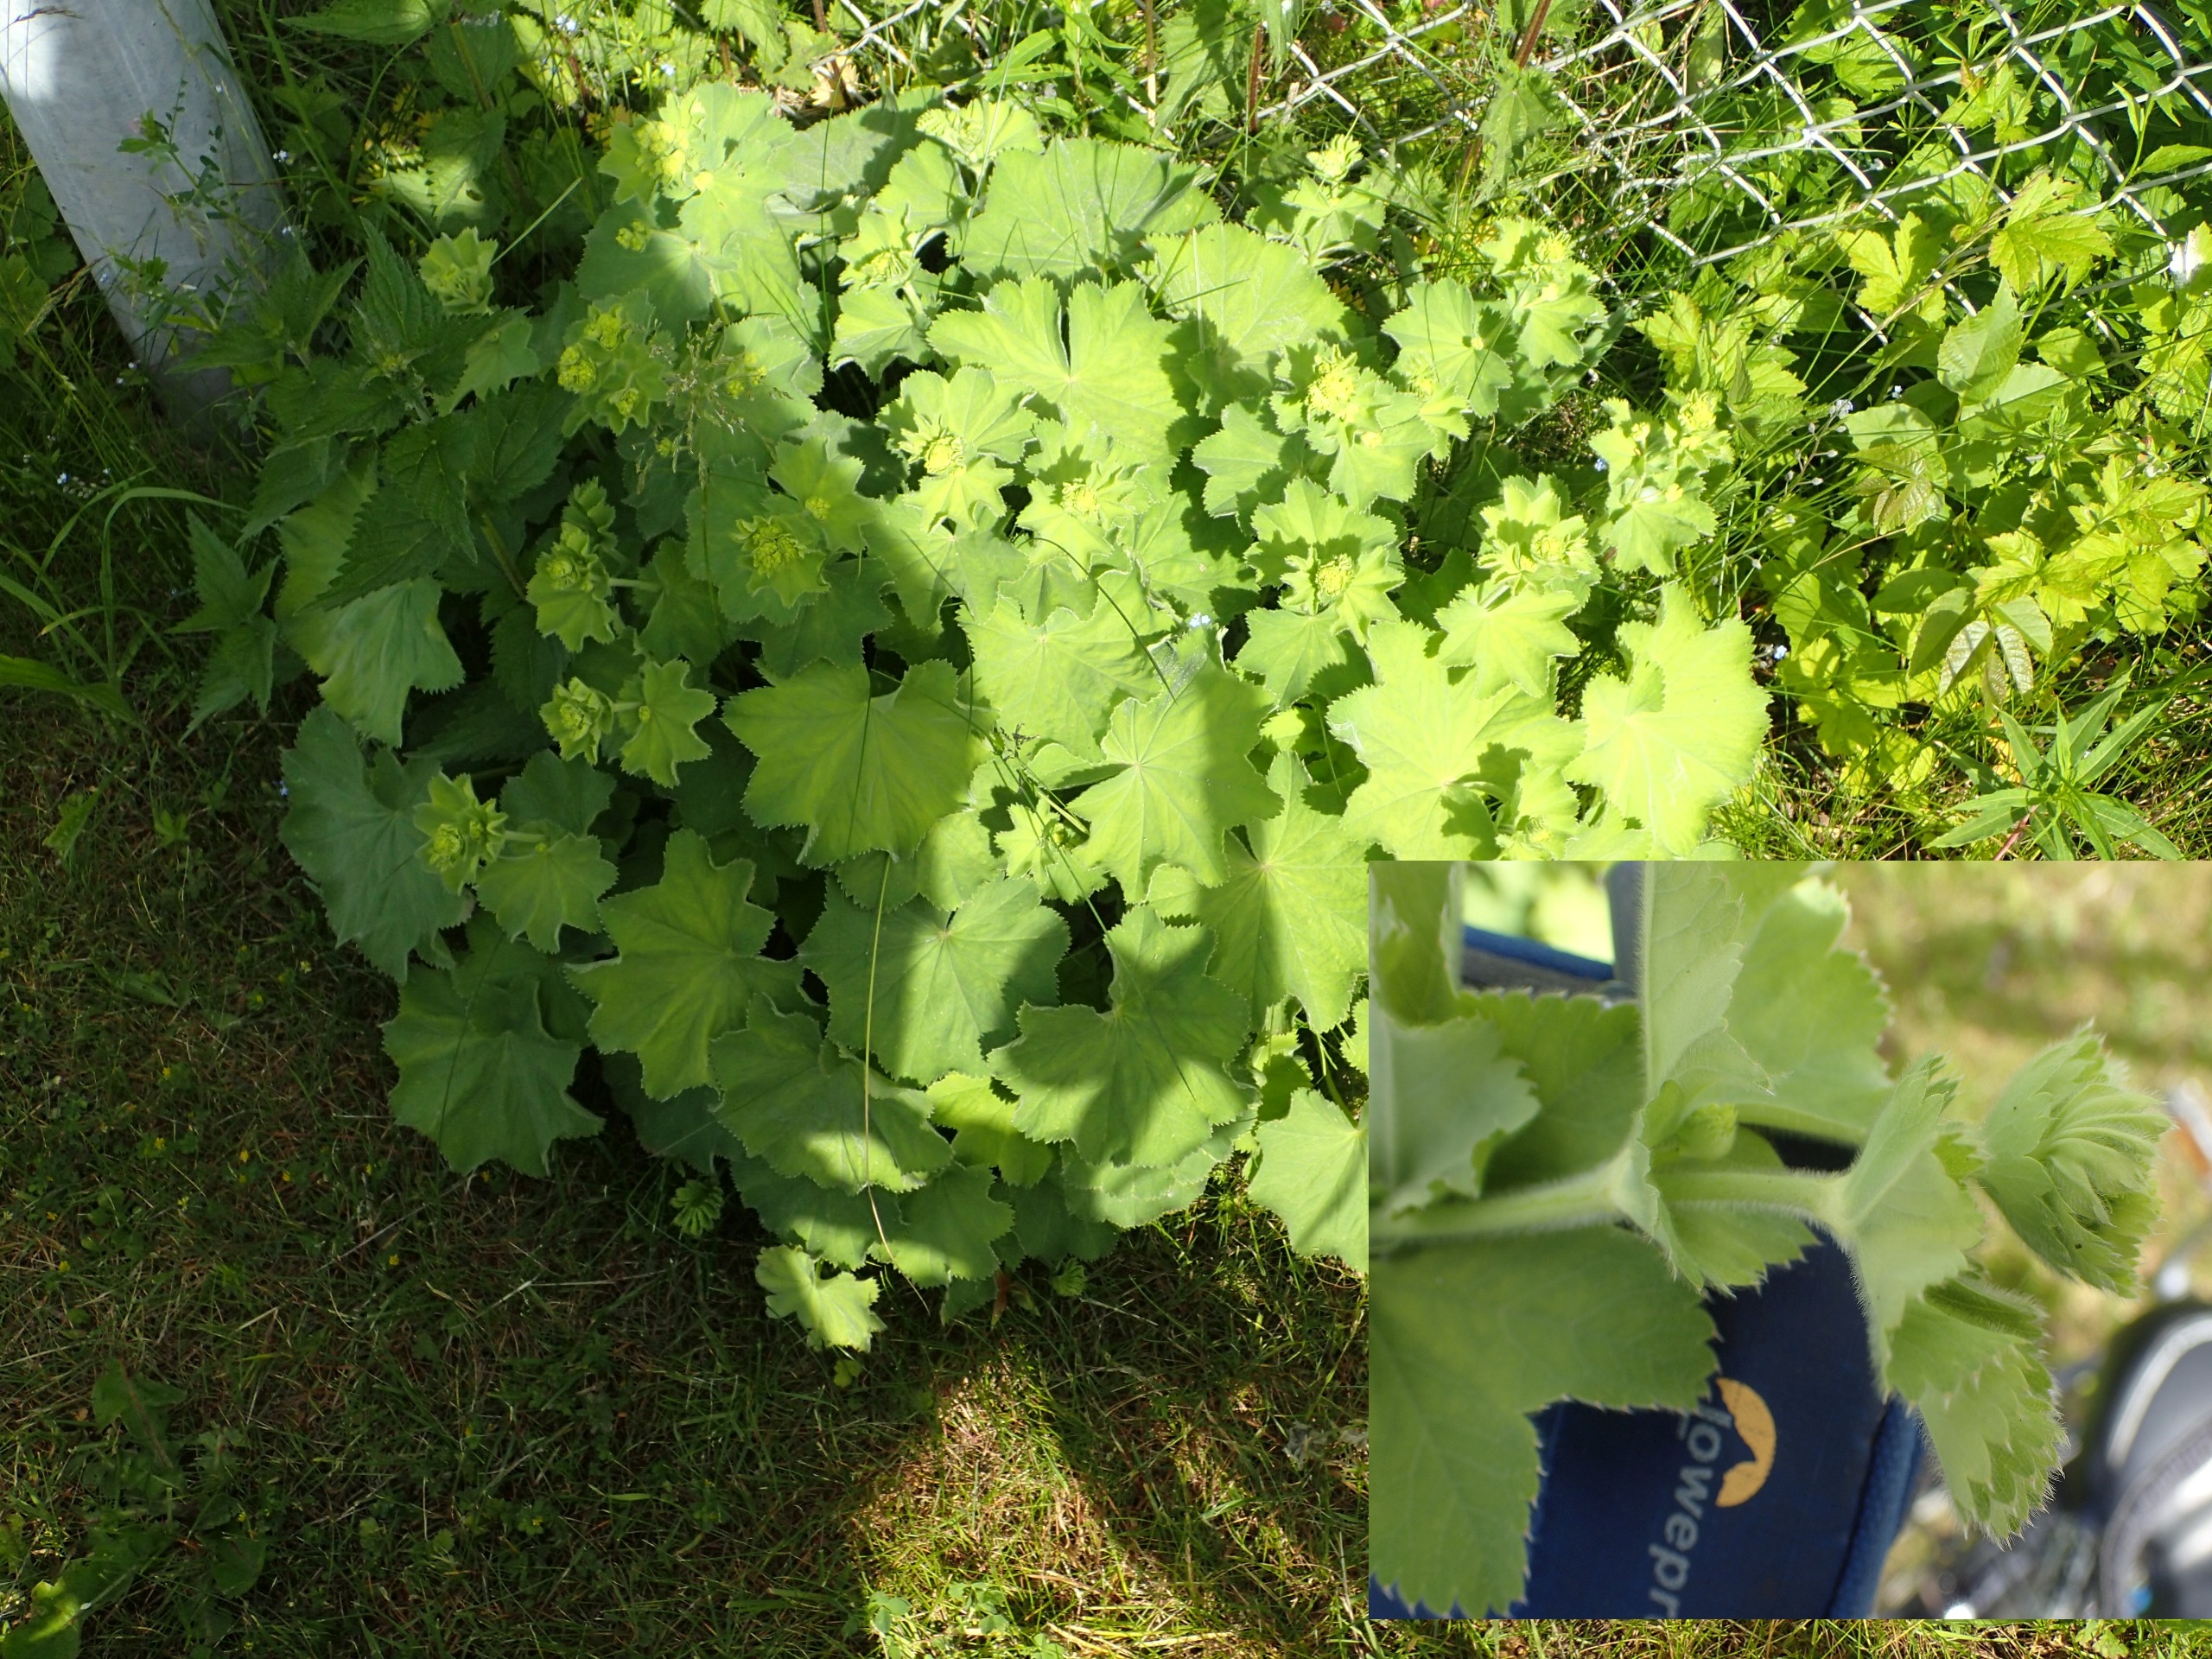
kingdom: Plantae
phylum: Tracheophyta
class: Magnoliopsida
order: Rosales
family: Rosaceae
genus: Alchemilla
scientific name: Alchemilla mollis
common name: Lådden løvefod
